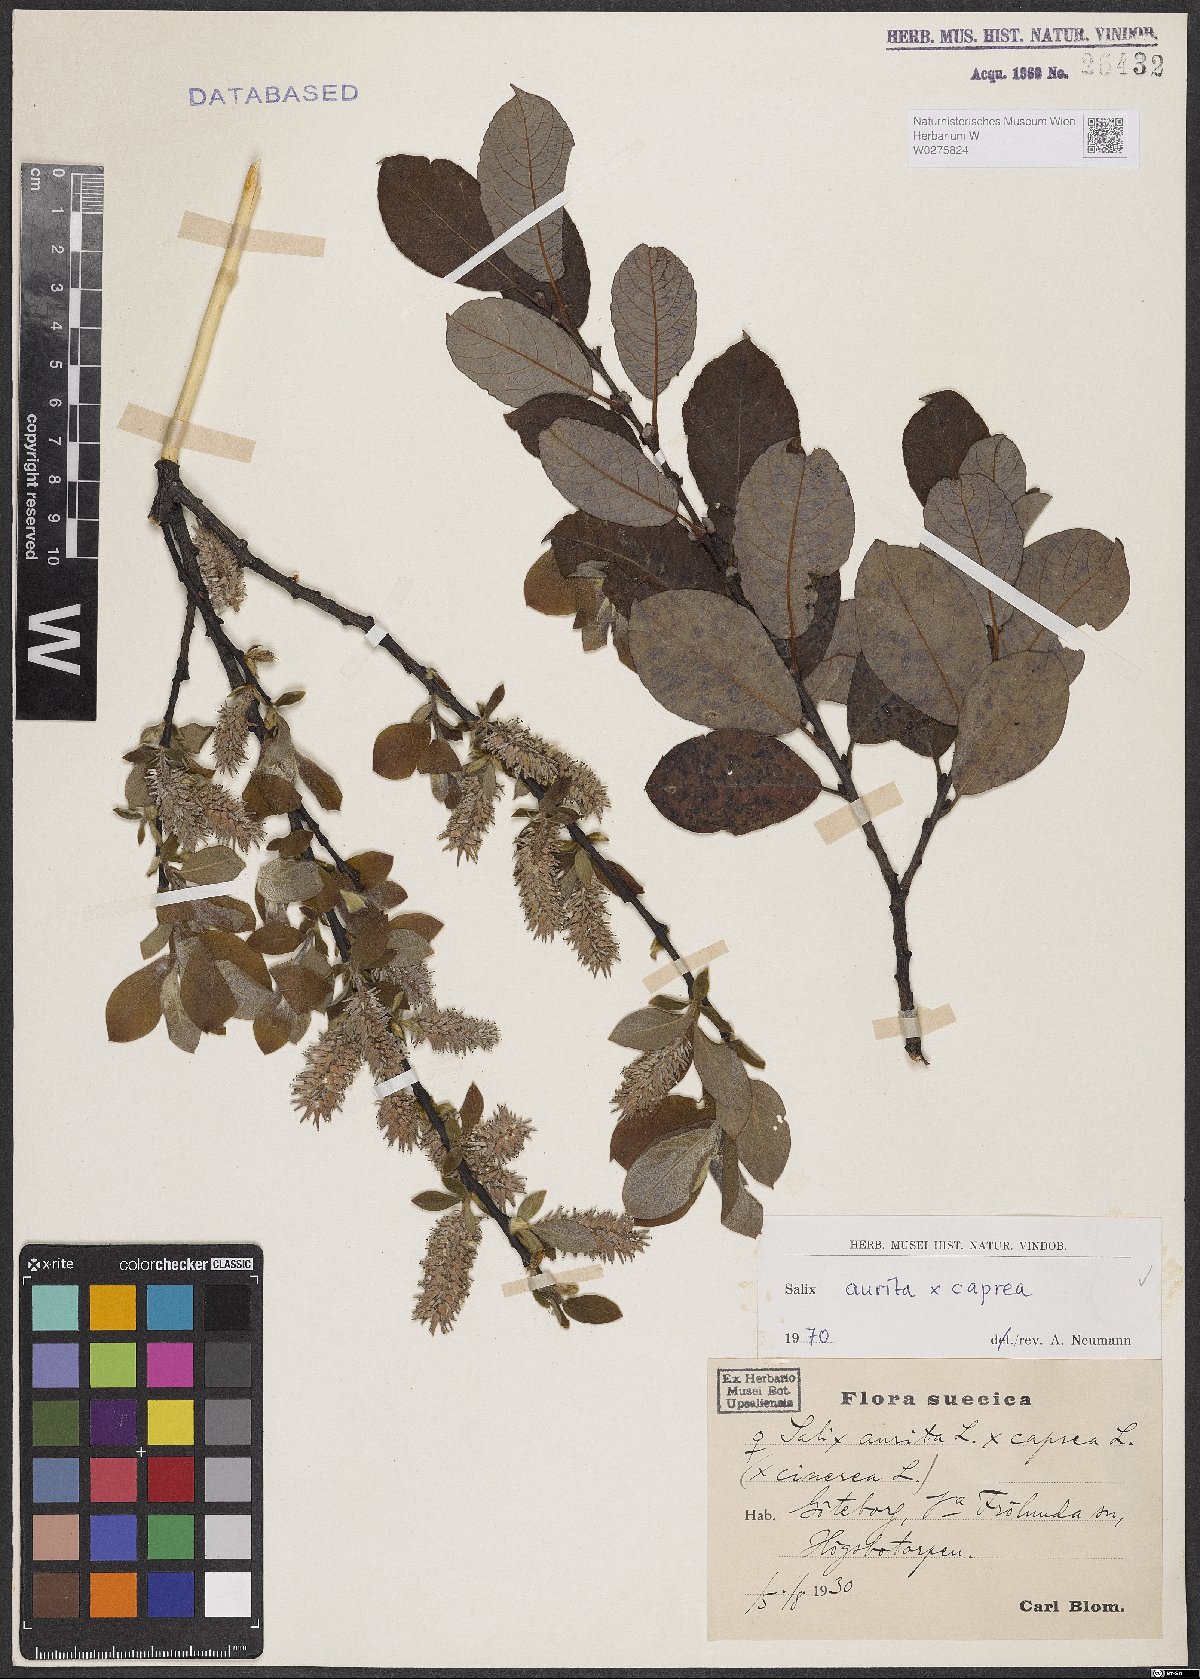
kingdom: Plantae
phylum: Tracheophyta
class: Magnoliopsida
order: Malpighiales
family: Salicaceae
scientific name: Salicaceae
